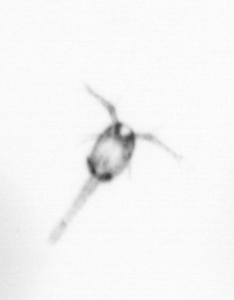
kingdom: Animalia
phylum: Arthropoda
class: Copepoda
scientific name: Copepoda
